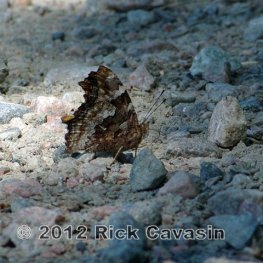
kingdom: Animalia
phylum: Arthropoda
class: Insecta
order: Lepidoptera
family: Nymphalidae
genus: Polygonia
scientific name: Polygonia vaualbum
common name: Compton Tortoiseshell
